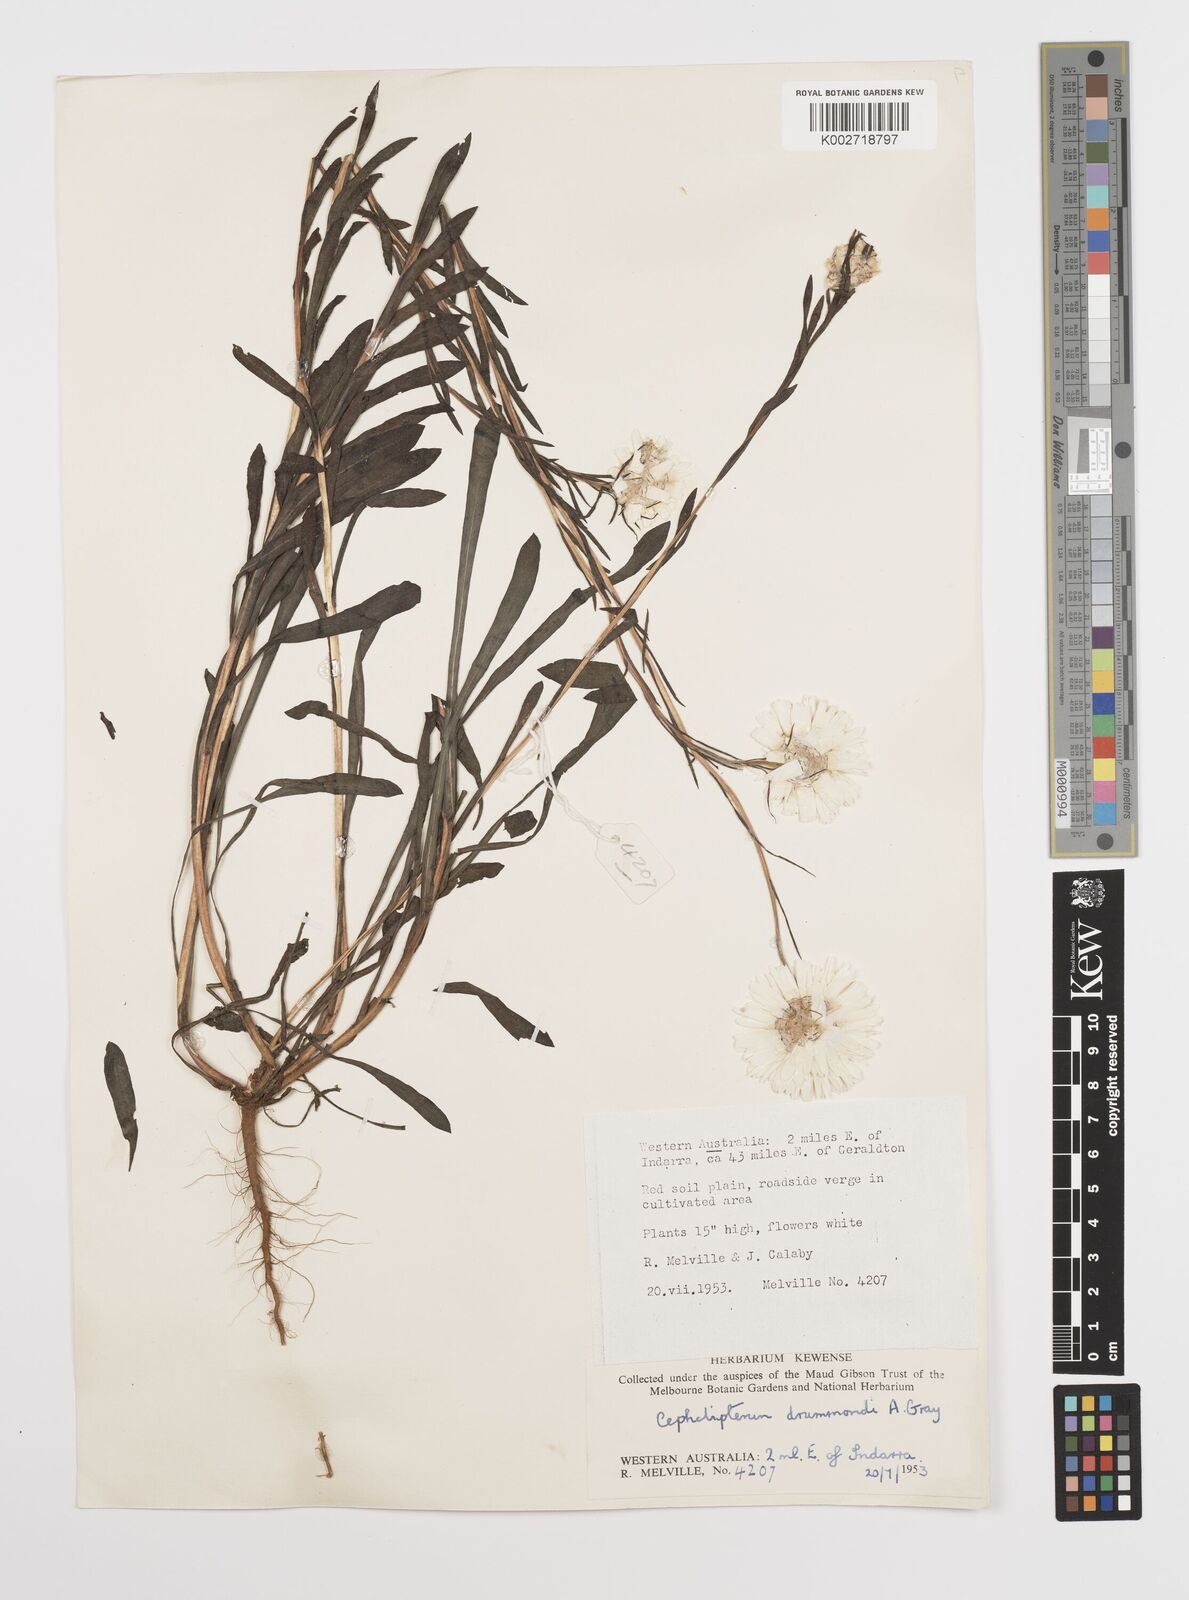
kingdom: Plantae
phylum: Tracheophyta
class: Magnoliopsida
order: Asterales
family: Asteraceae
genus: Cephalipterum
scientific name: Cephalipterum drummondii
